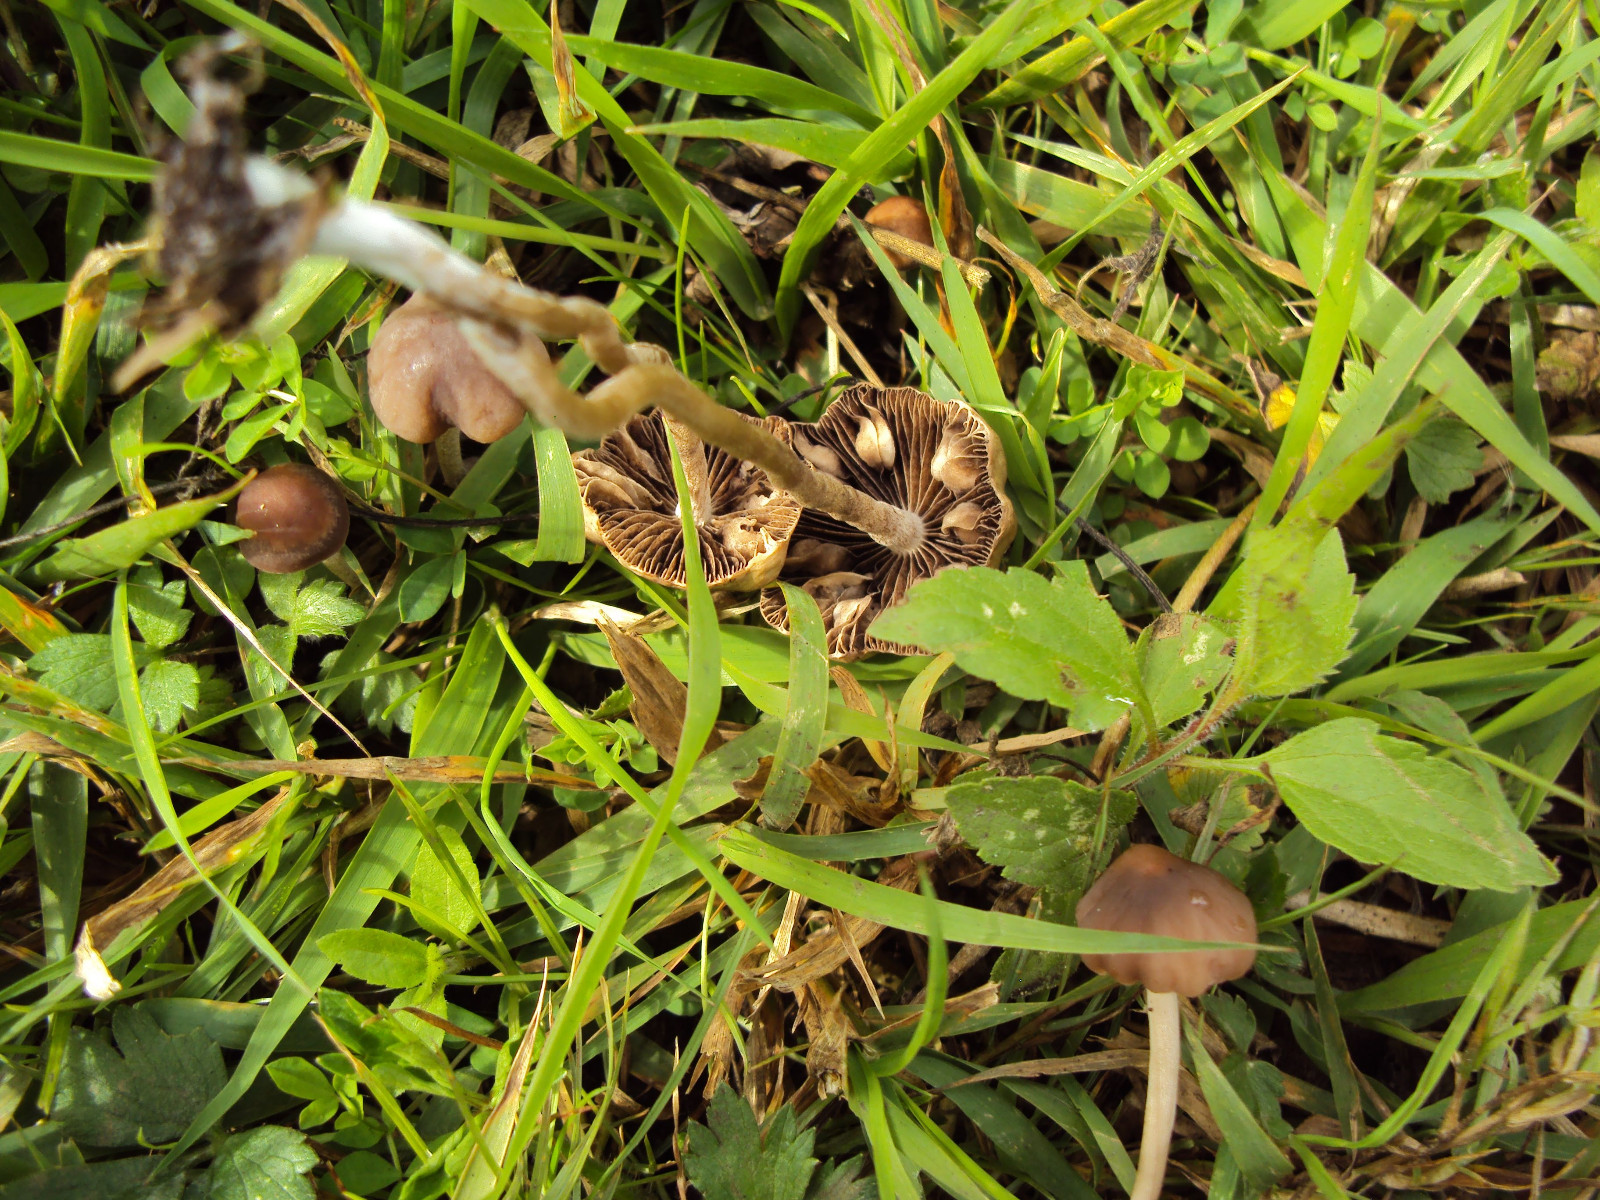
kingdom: Fungi
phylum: Basidiomycota
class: Agaricomycetes
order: Agaricales
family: Bolbitiaceae
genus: Panaeolus
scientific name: Panaeolus
